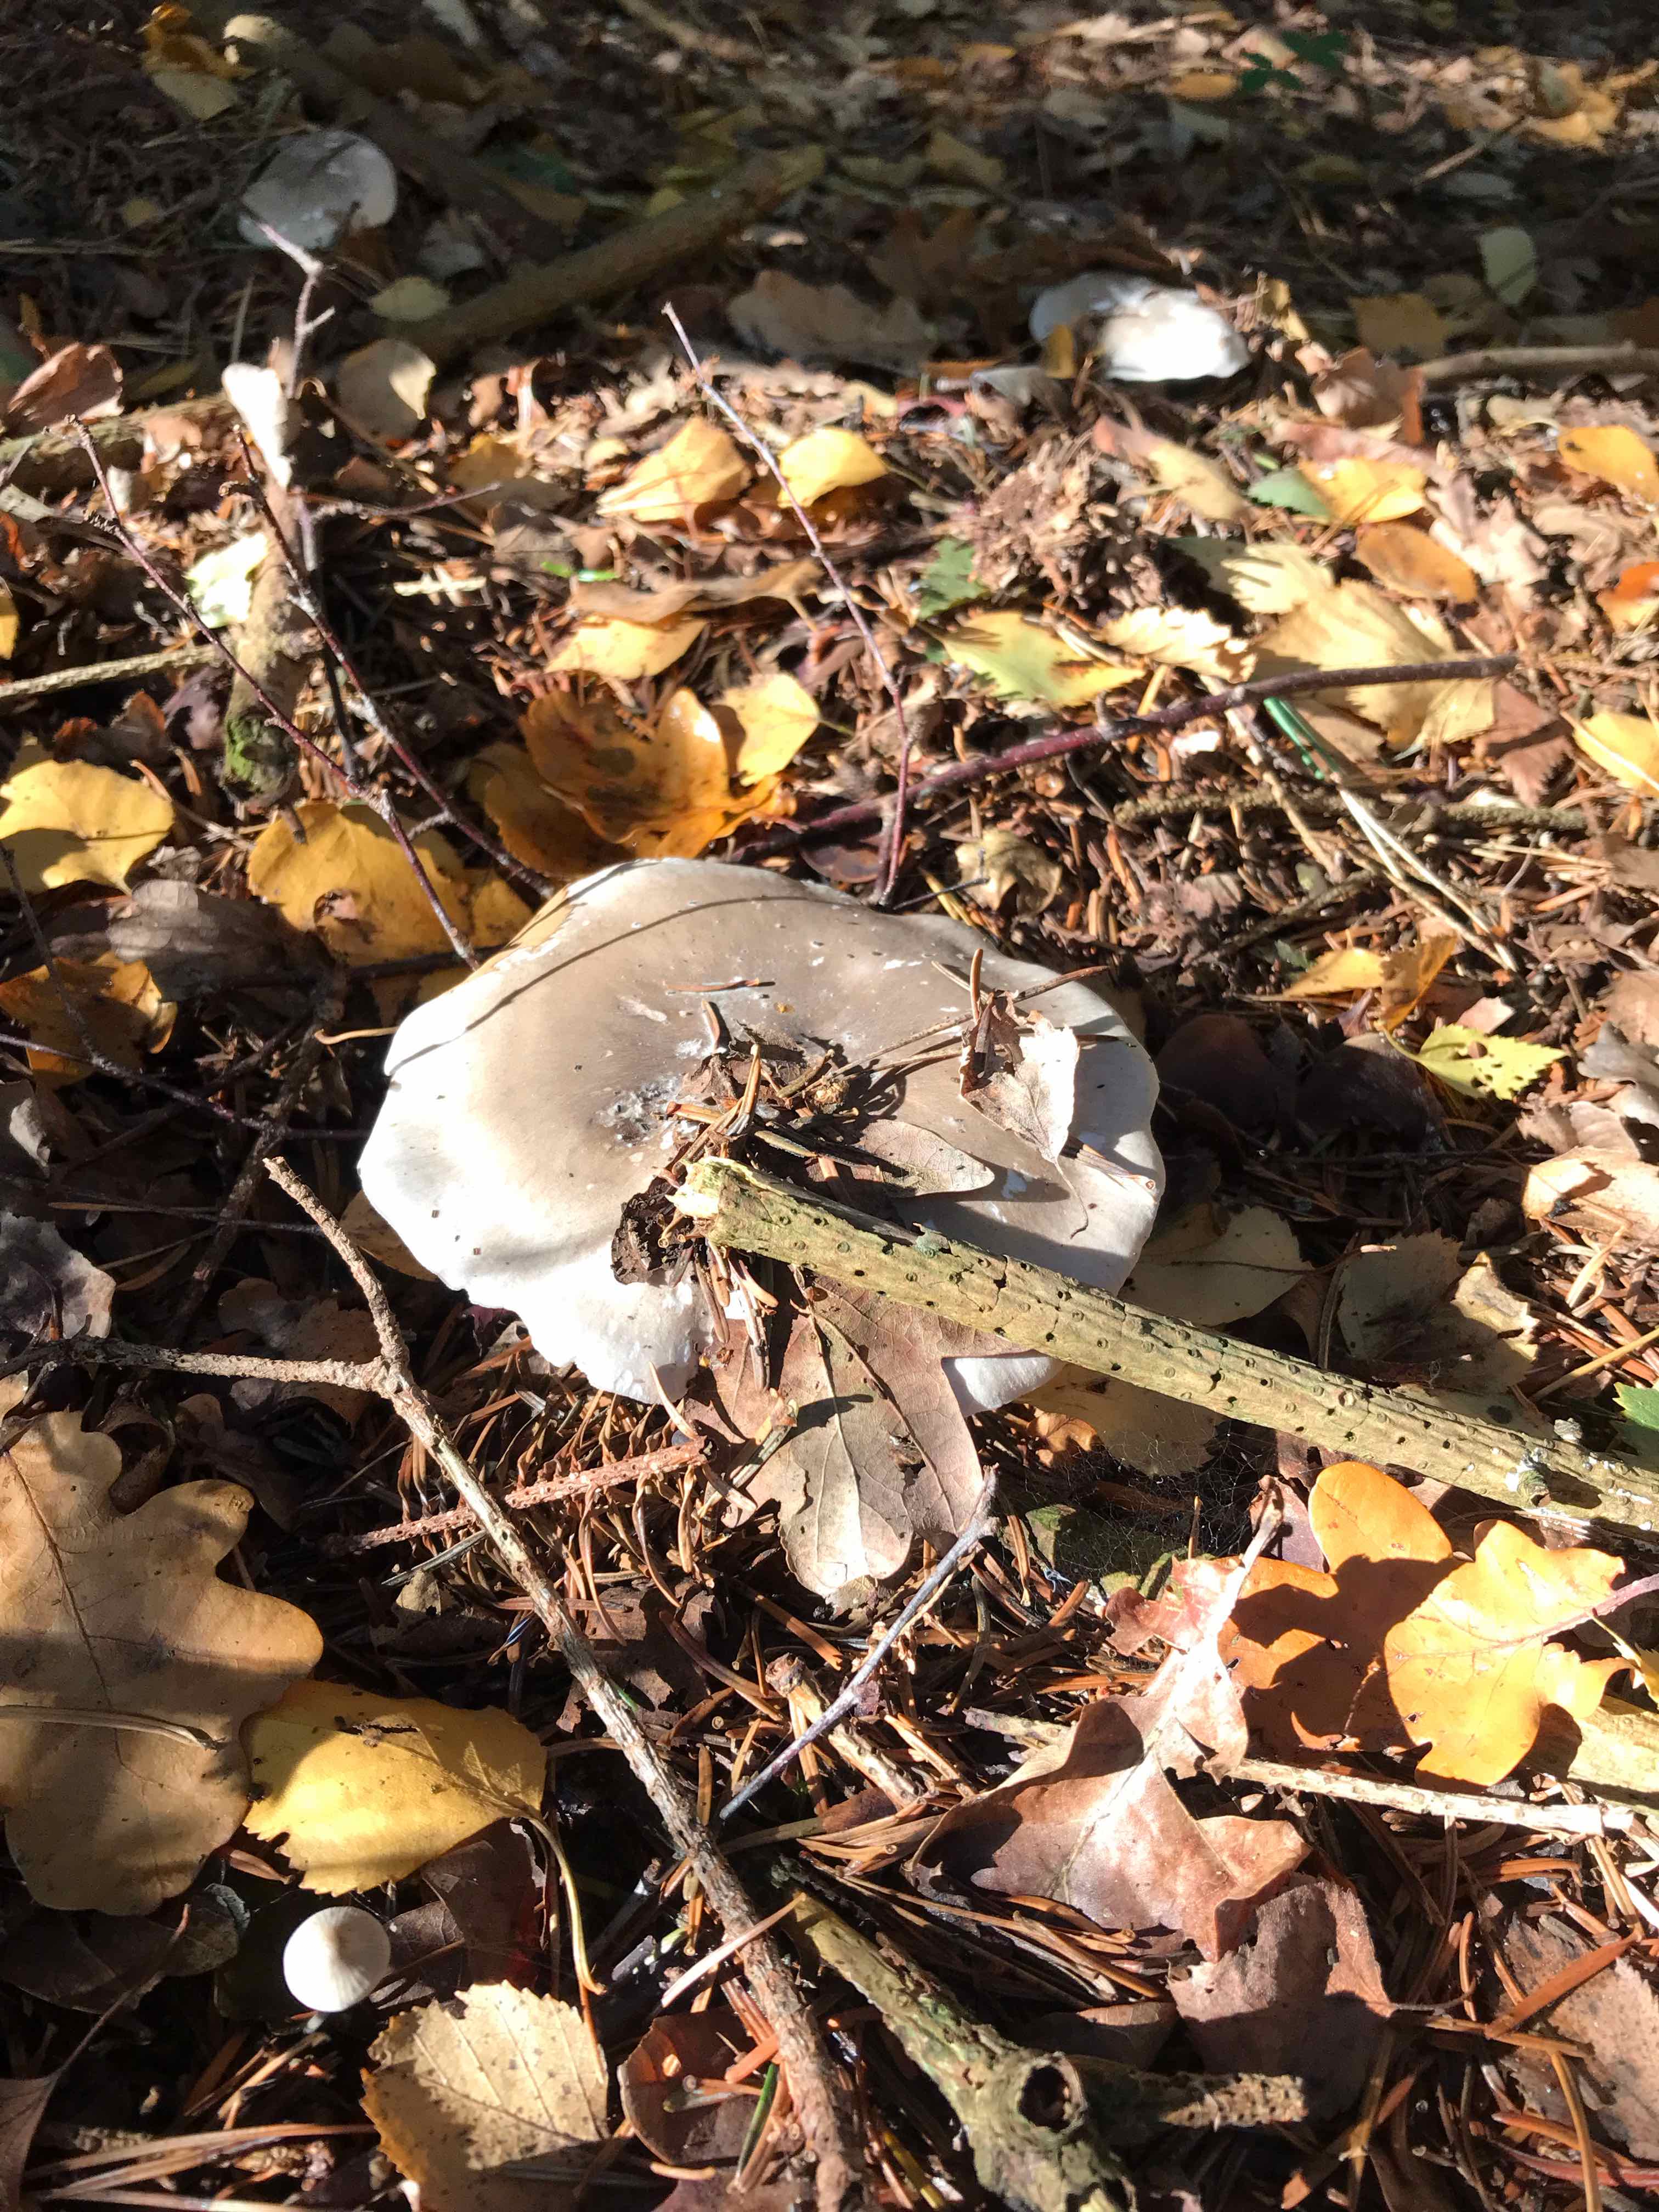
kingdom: Fungi
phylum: Basidiomycota
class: Agaricomycetes
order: Agaricales
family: Tricholomataceae
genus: Clitocybe
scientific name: Clitocybe nebularis
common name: tåge-tragthat
